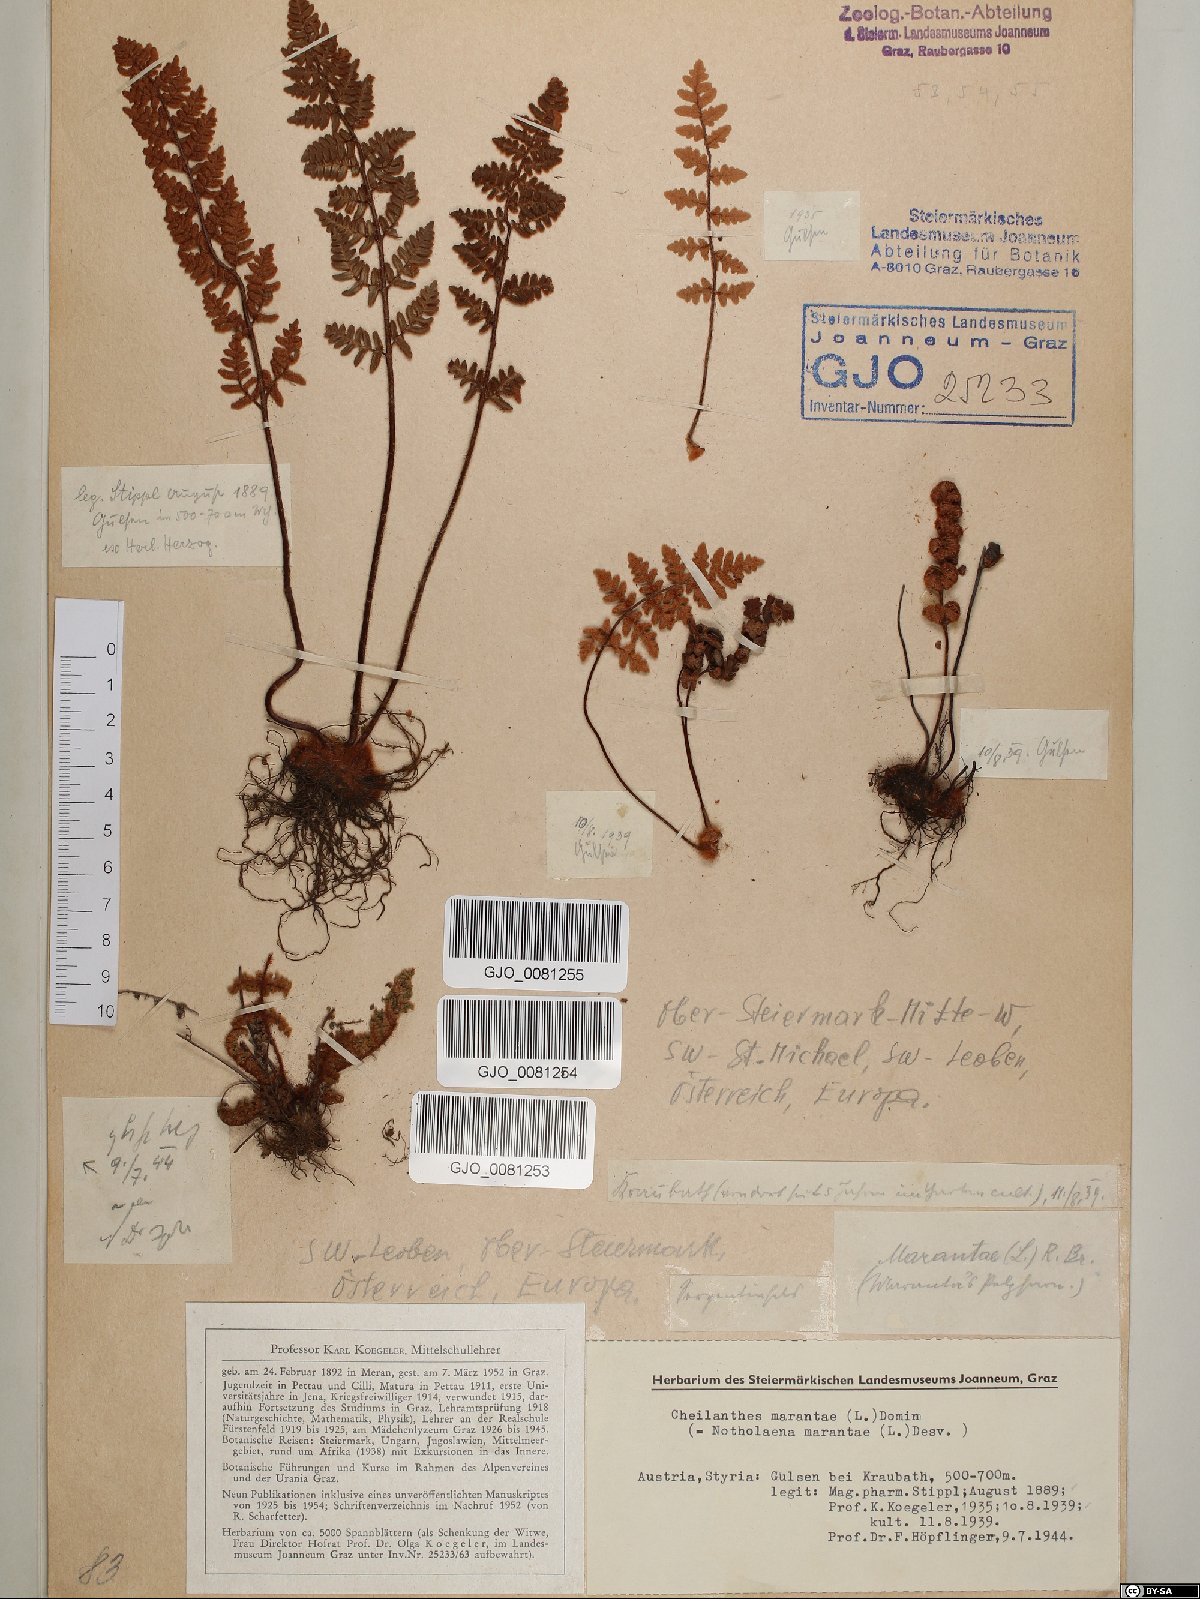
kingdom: Plantae
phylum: Tracheophyta
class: Polypodiopsida
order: Polypodiales
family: Pteridaceae
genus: Paragymnopteris
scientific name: Paragymnopteris marantae
